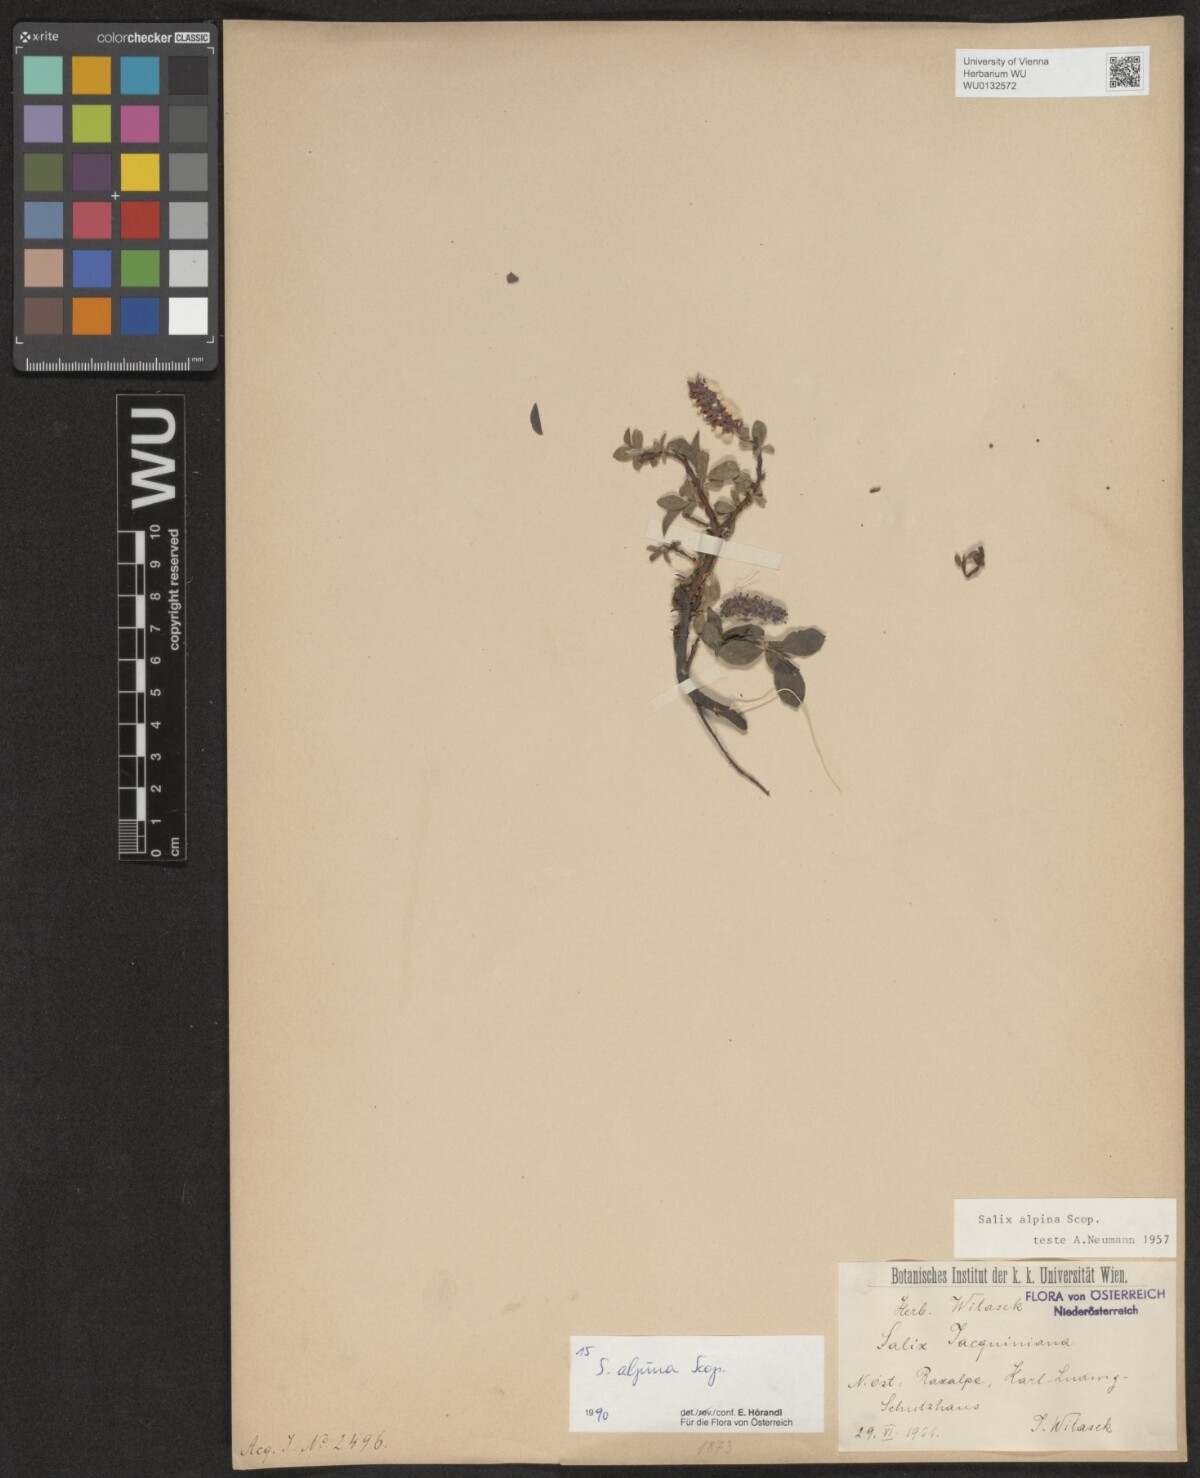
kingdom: Plantae
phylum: Tracheophyta
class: Magnoliopsida
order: Malpighiales
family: Salicaceae
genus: Salix
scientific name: Salix alpina
